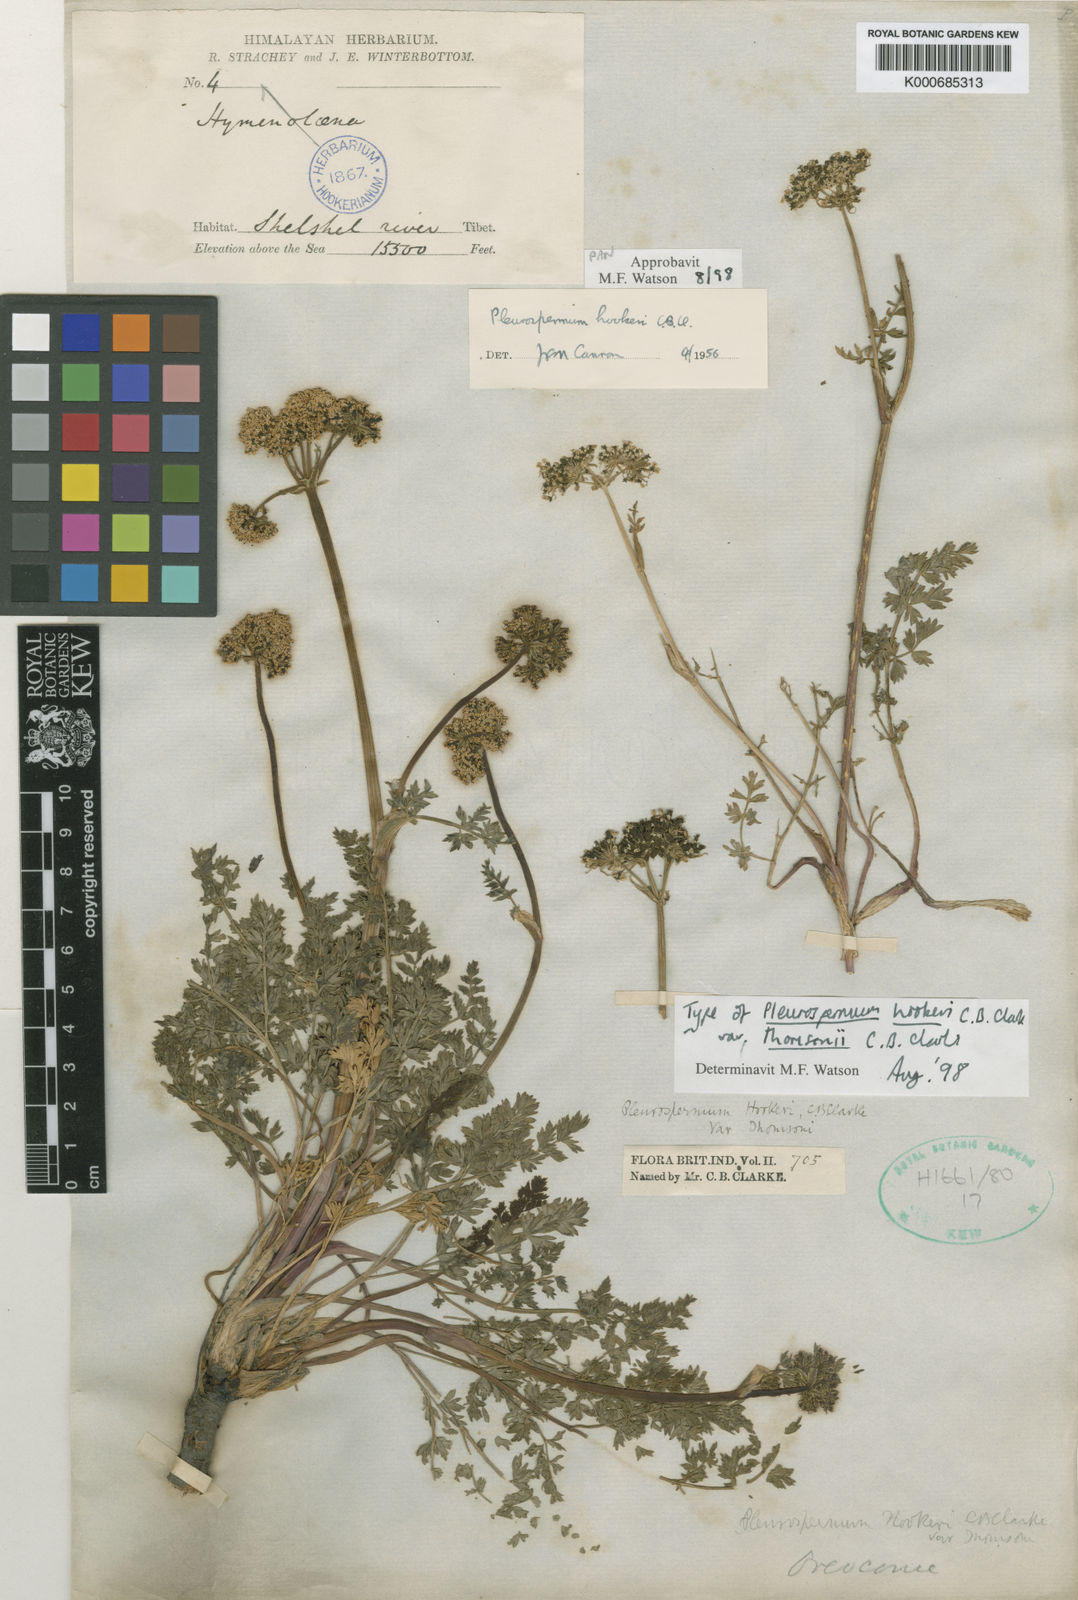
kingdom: Plantae
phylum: Tracheophyta
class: Magnoliopsida
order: Apiales
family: Apiaceae
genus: Pleurospermum
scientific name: Pleurospermum hookeri
